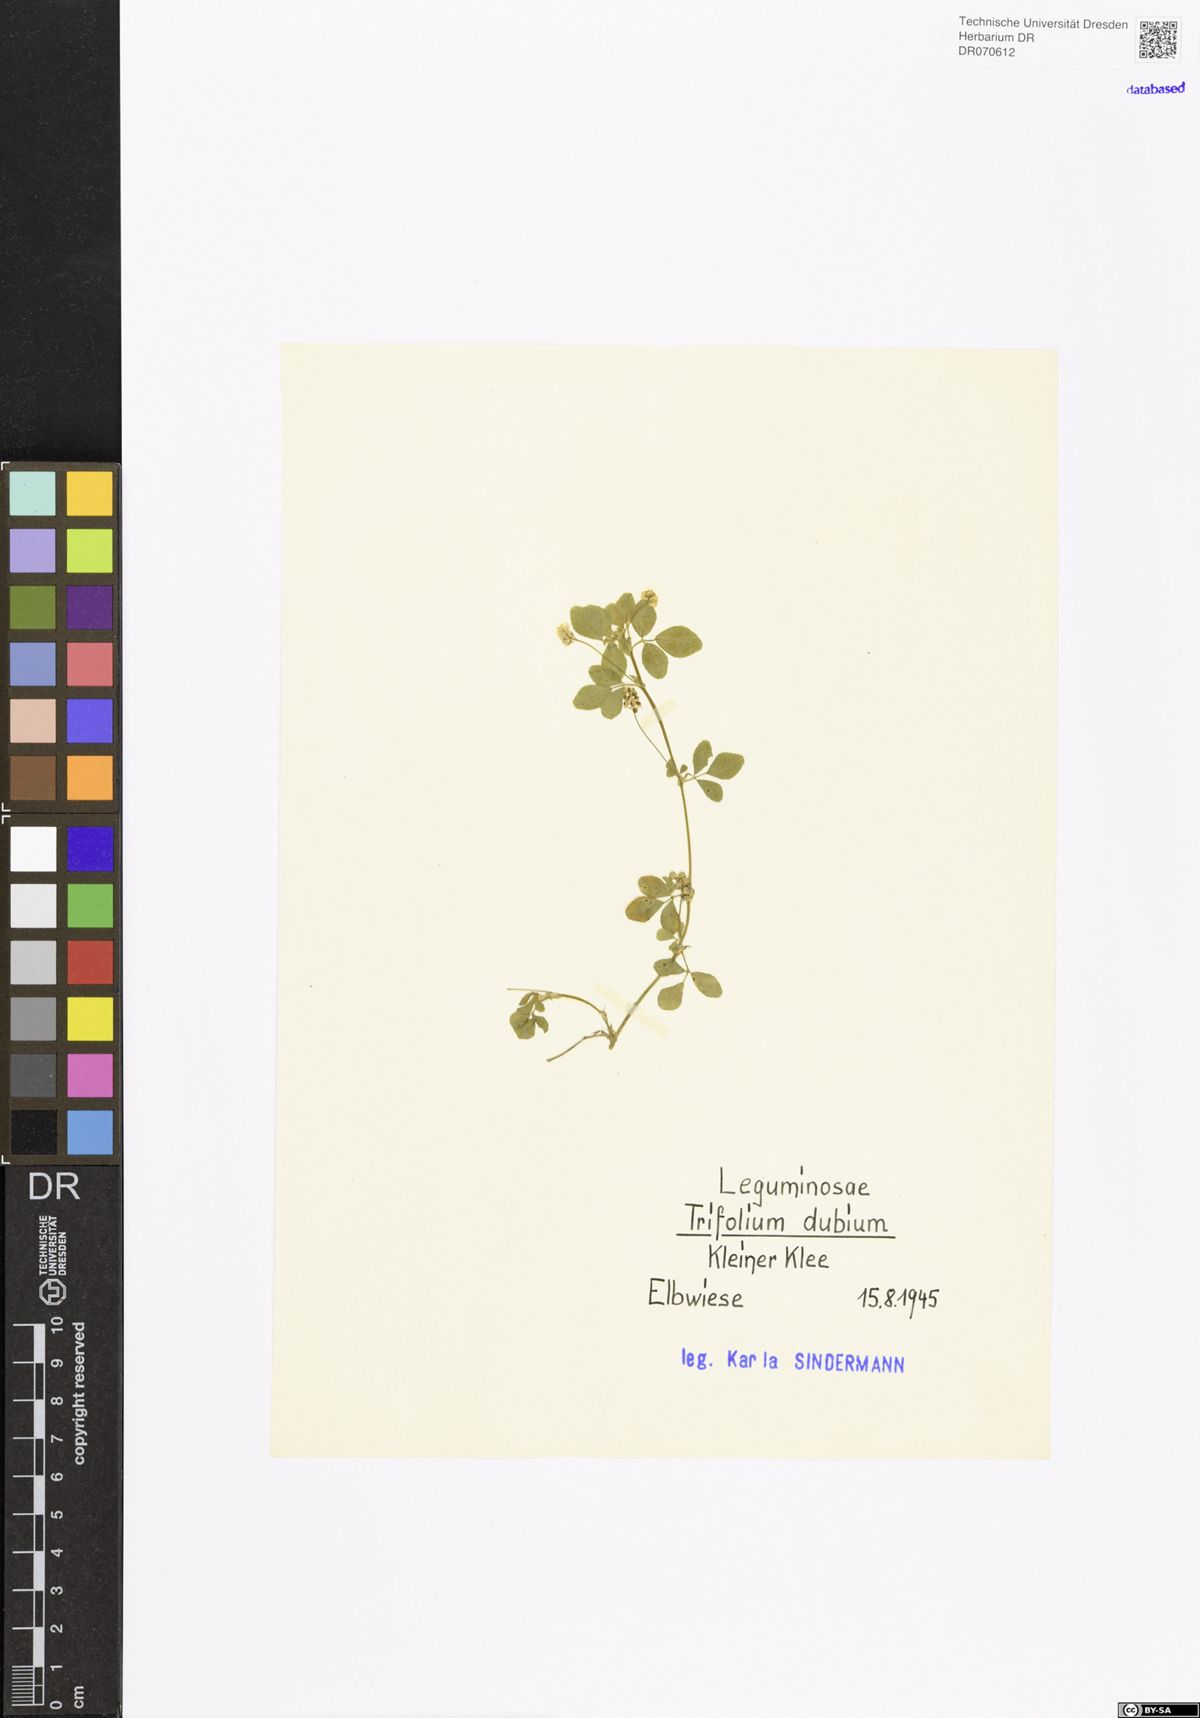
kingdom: Plantae
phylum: Tracheophyta
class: Magnoliopsida
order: Fabales
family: Fabaceae
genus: Trifolium
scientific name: Trifolium dubium
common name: Suckling clover
